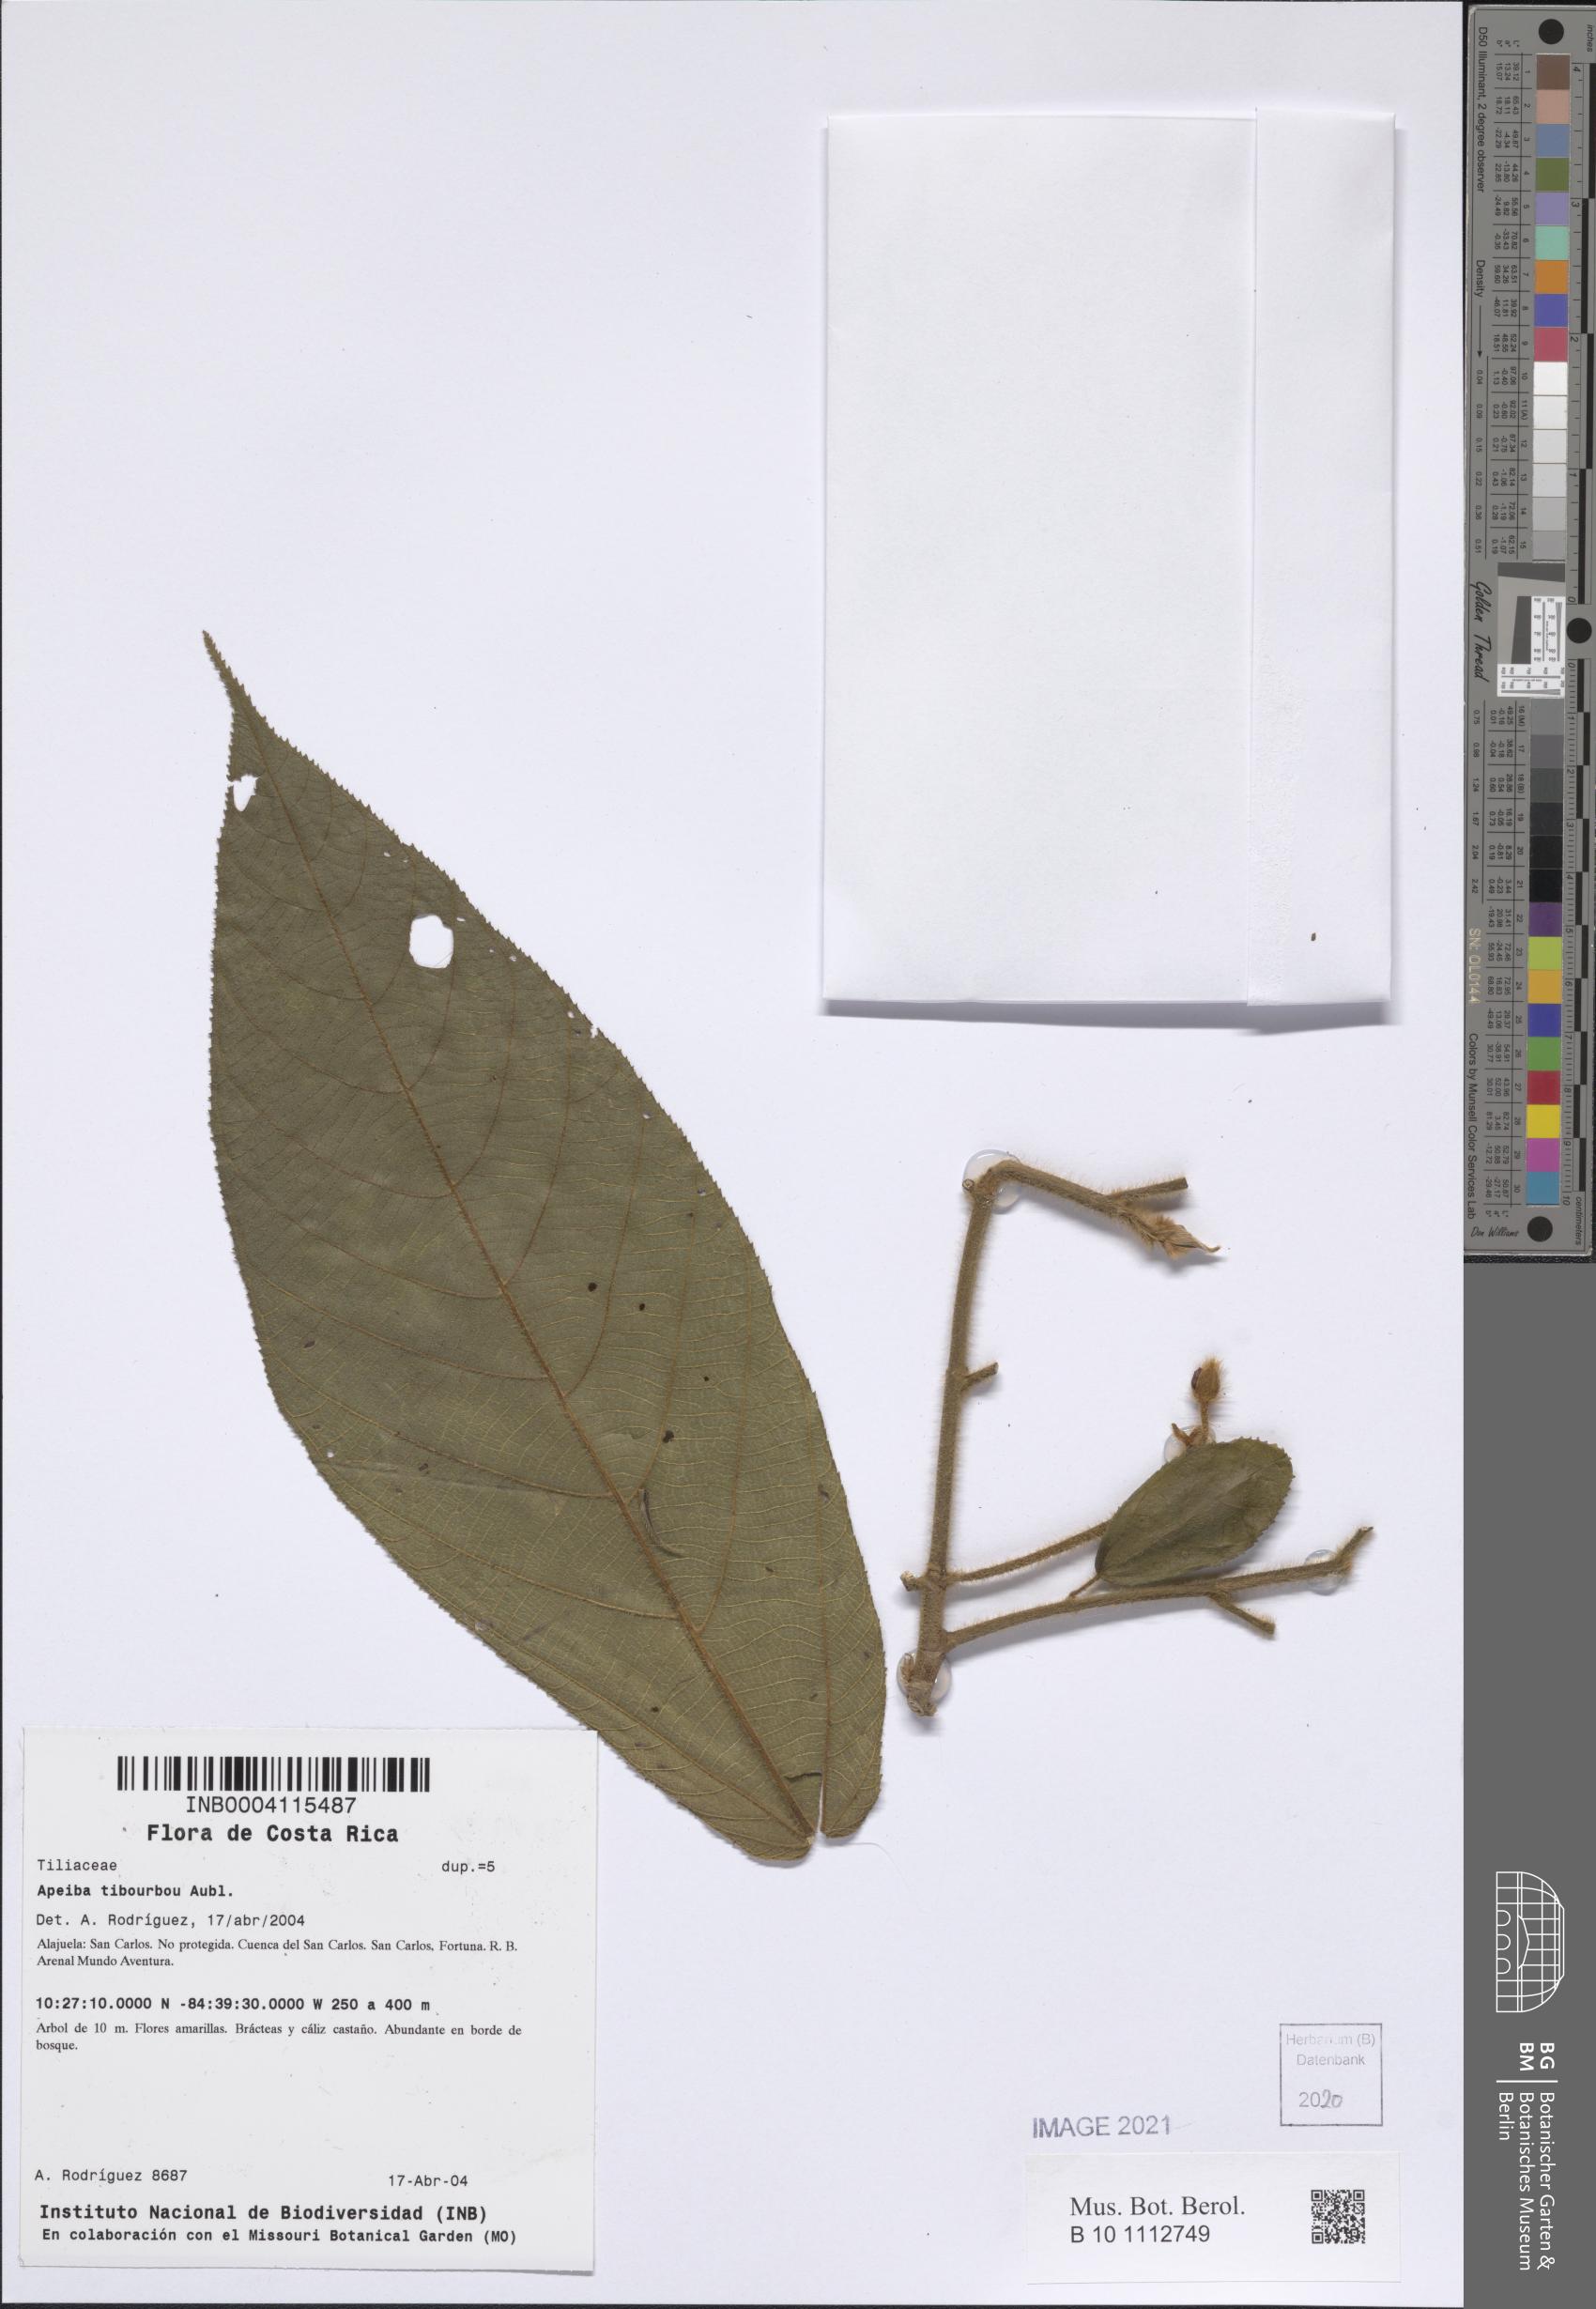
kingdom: Plantae
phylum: Tracheophyta
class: Magnoliopsida
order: Malvales
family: Malvaceae
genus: Apeiba
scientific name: Apeiba tibourbou
